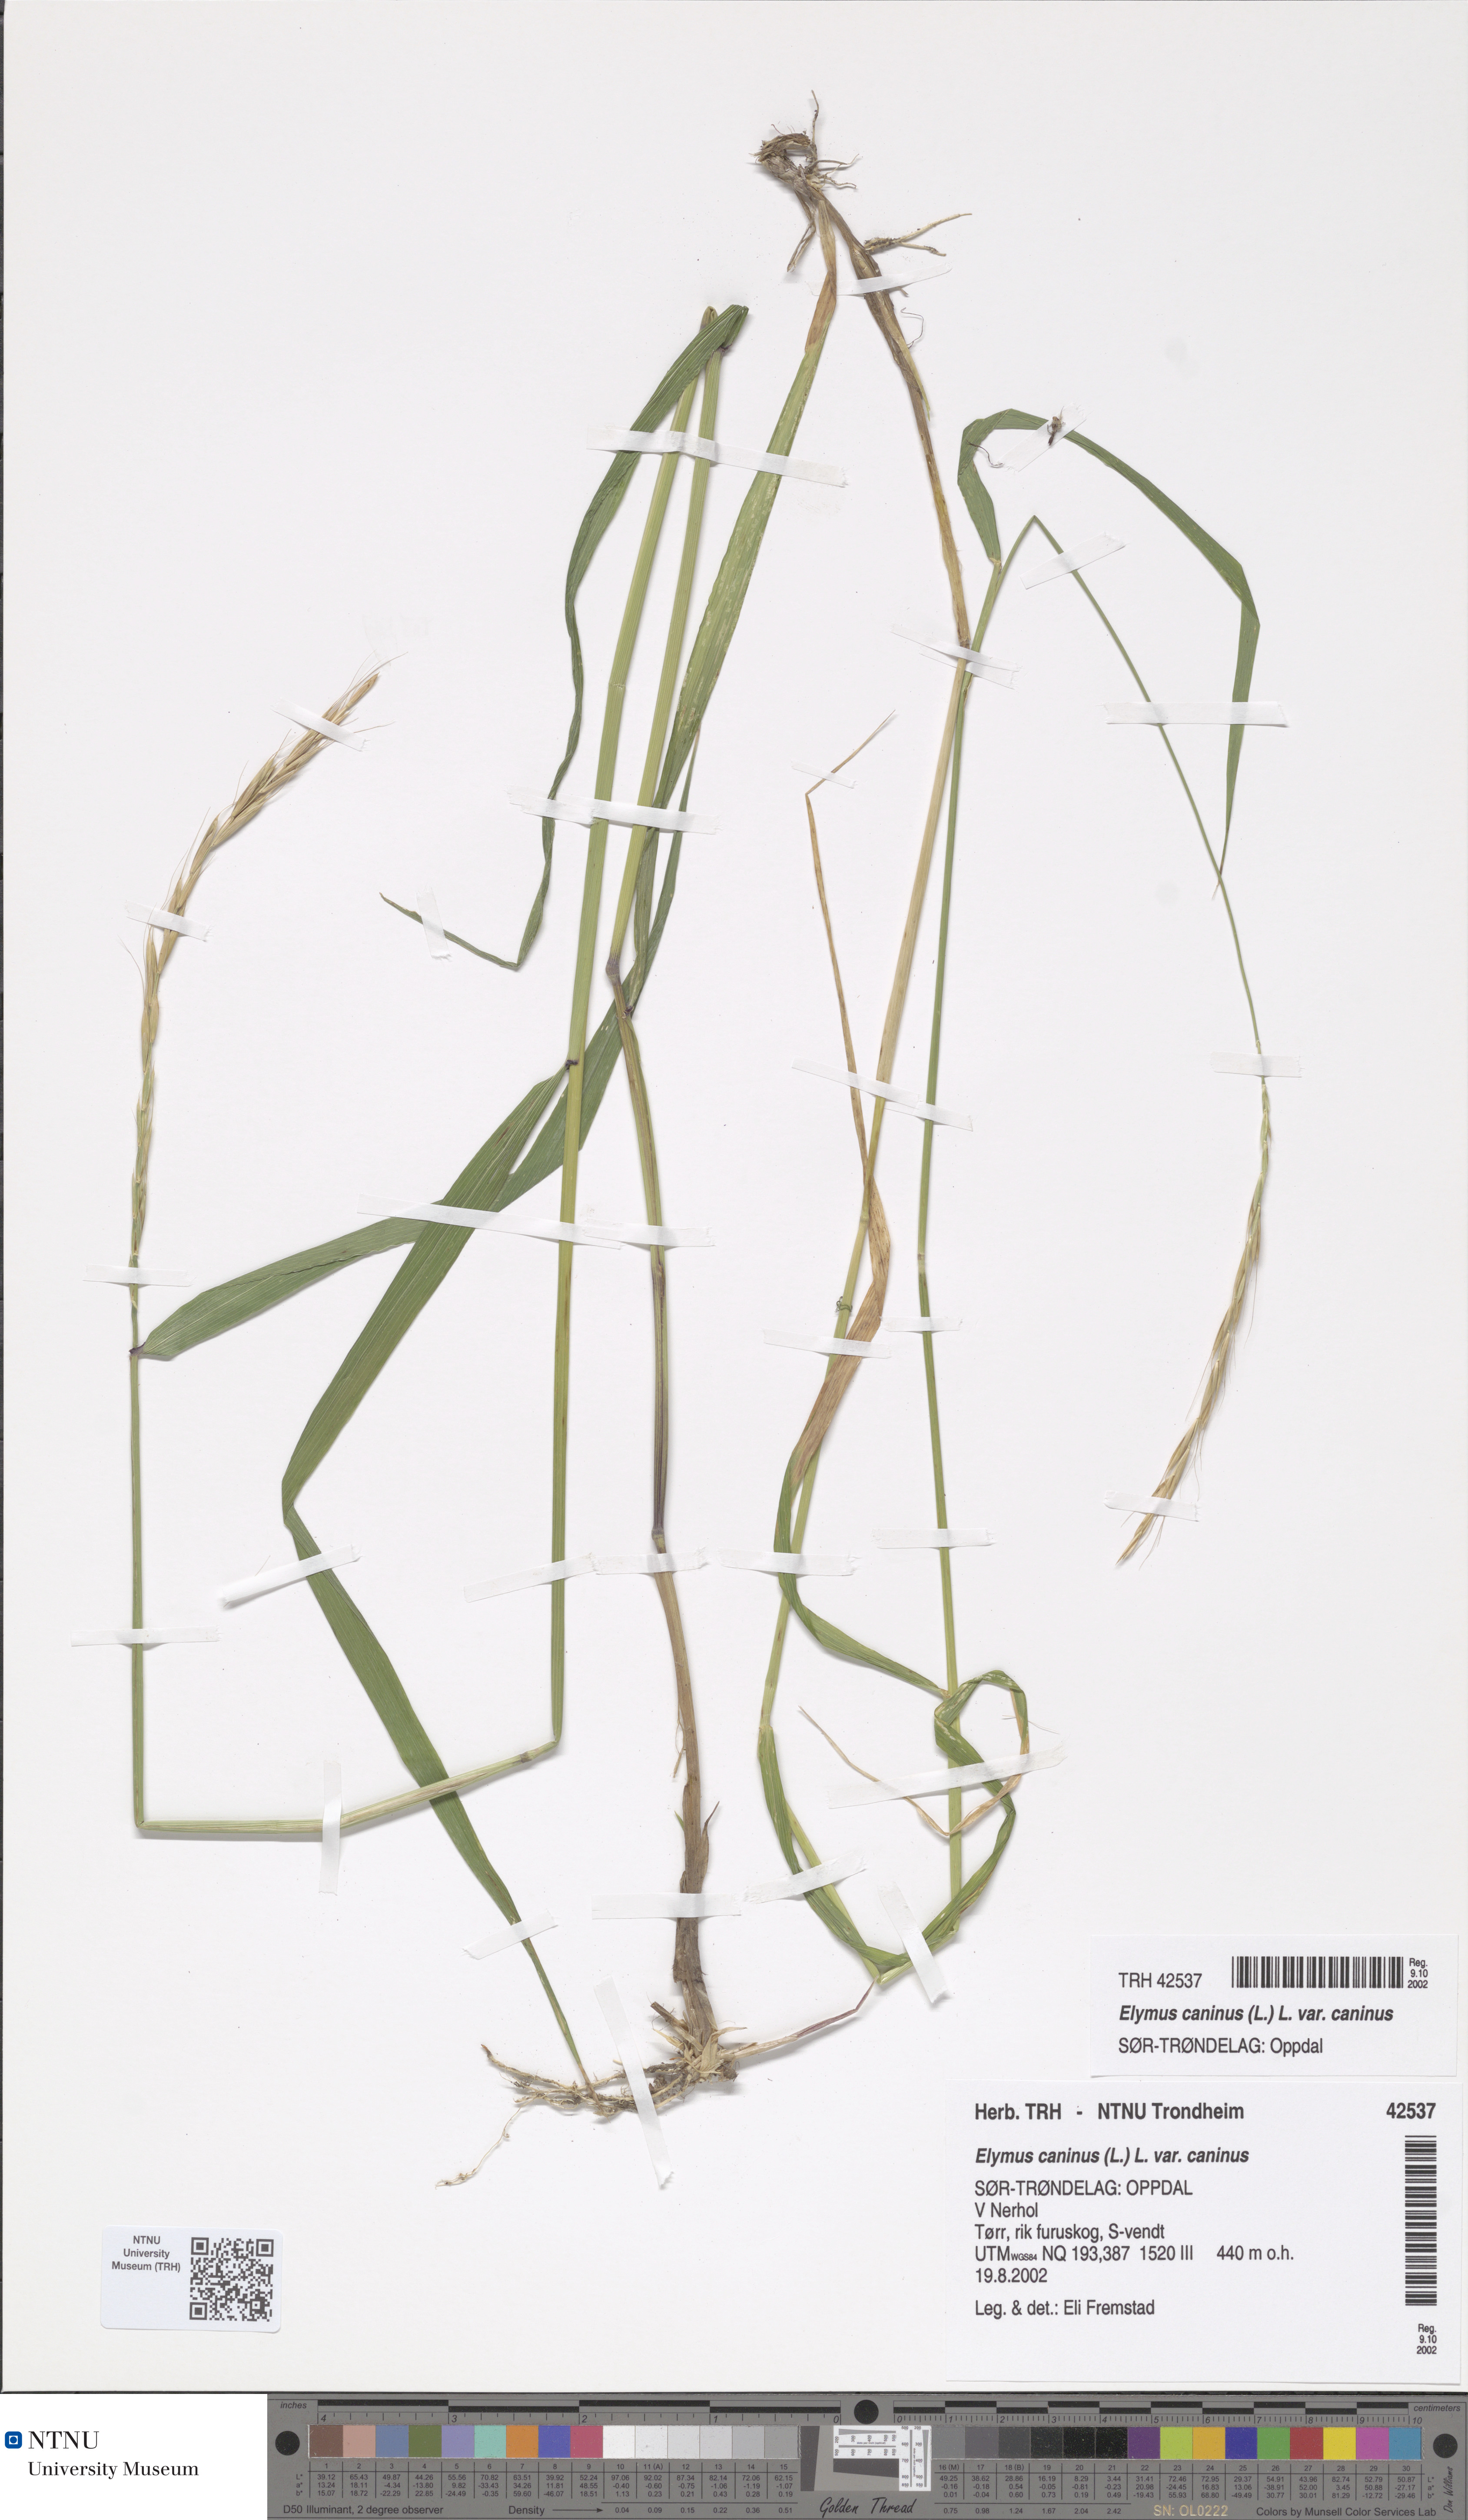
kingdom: Plantae
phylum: Tracheophyta
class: Liliopsida
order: Poales
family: Poaceae
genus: Elymus
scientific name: Elymus caninus
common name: Bearded couch
